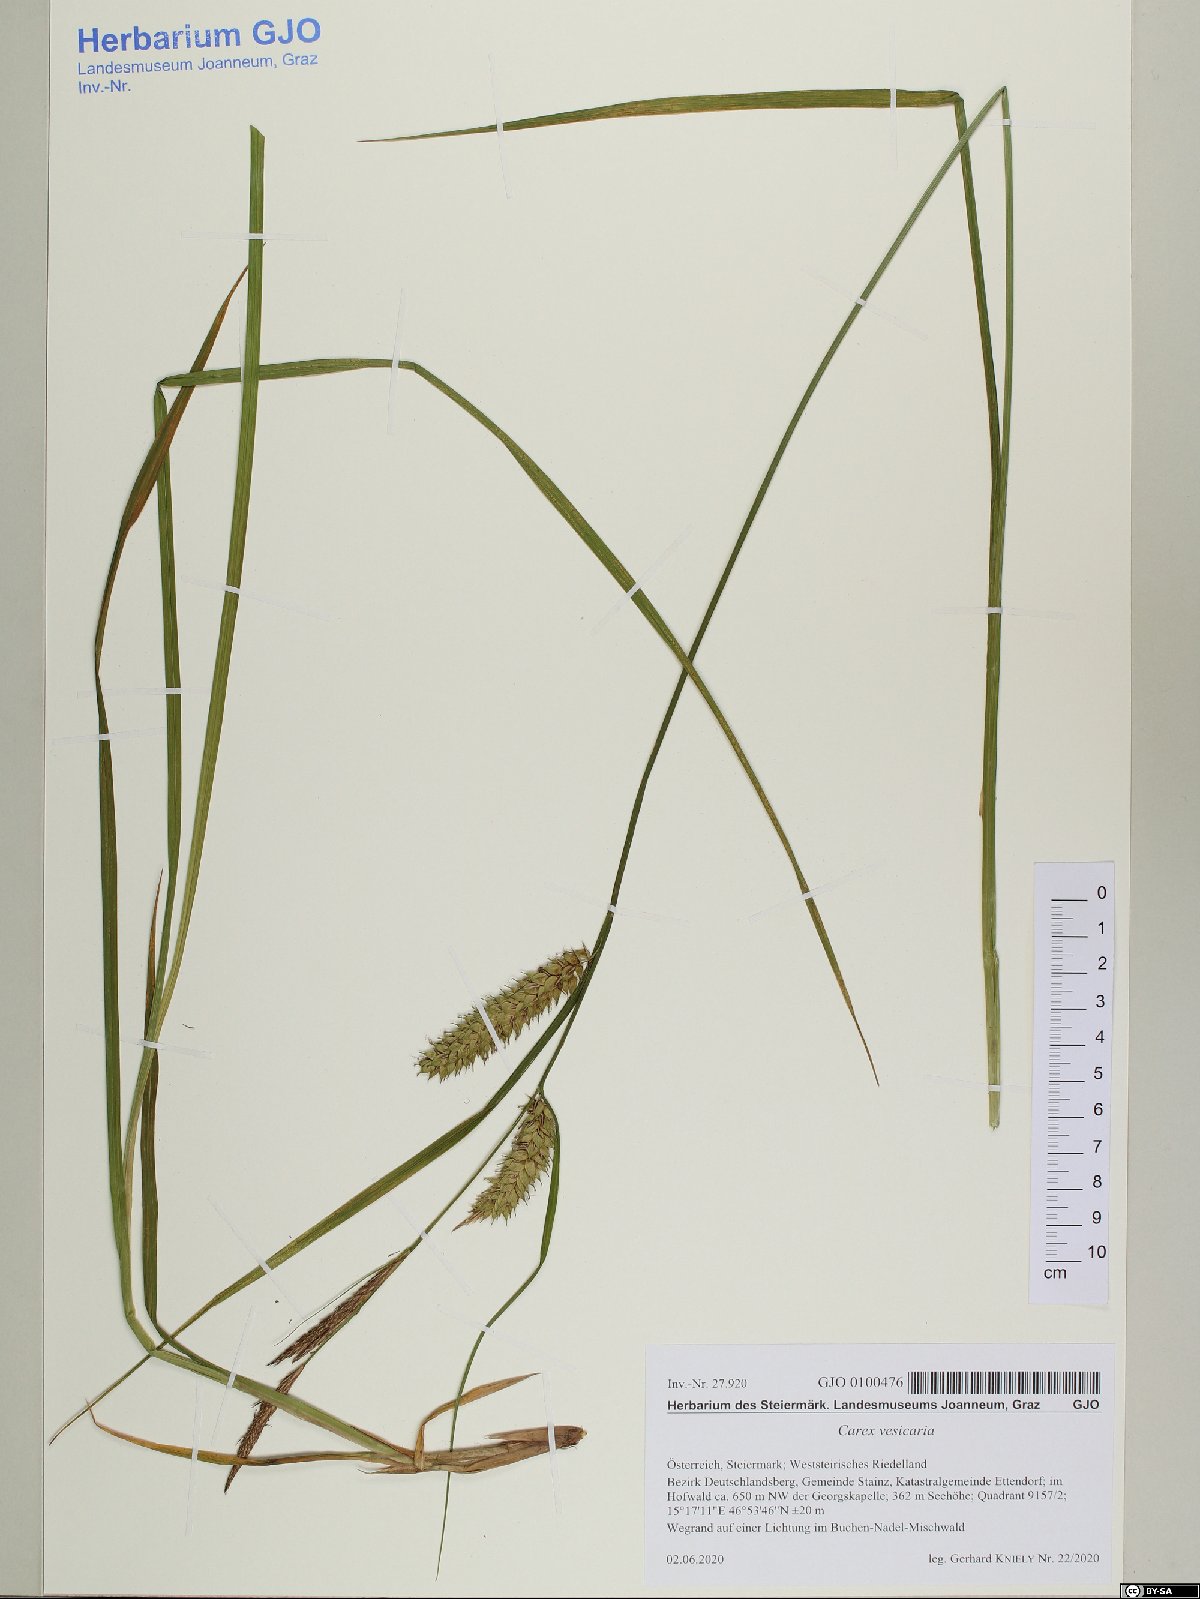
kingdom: Plantae
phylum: Tracheophyta
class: Liliopsida
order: Poales
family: Cyperaceae
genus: Carex
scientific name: Carex vesicaria
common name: Bladder-sedge
